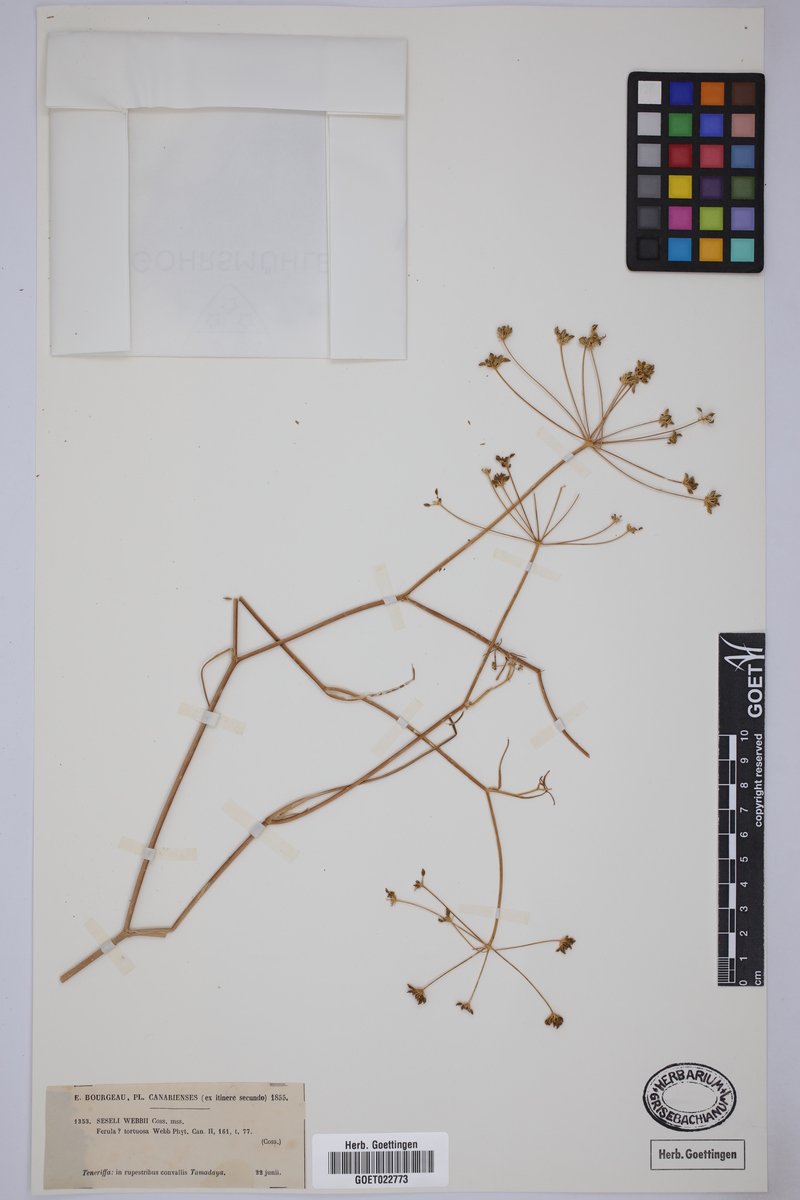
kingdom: Plantae
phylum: Tracheophyta
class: Magnoliopsida
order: Apiales
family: Apiaceae
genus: Rutheopsis
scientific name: Rutheopsis tortuosa
